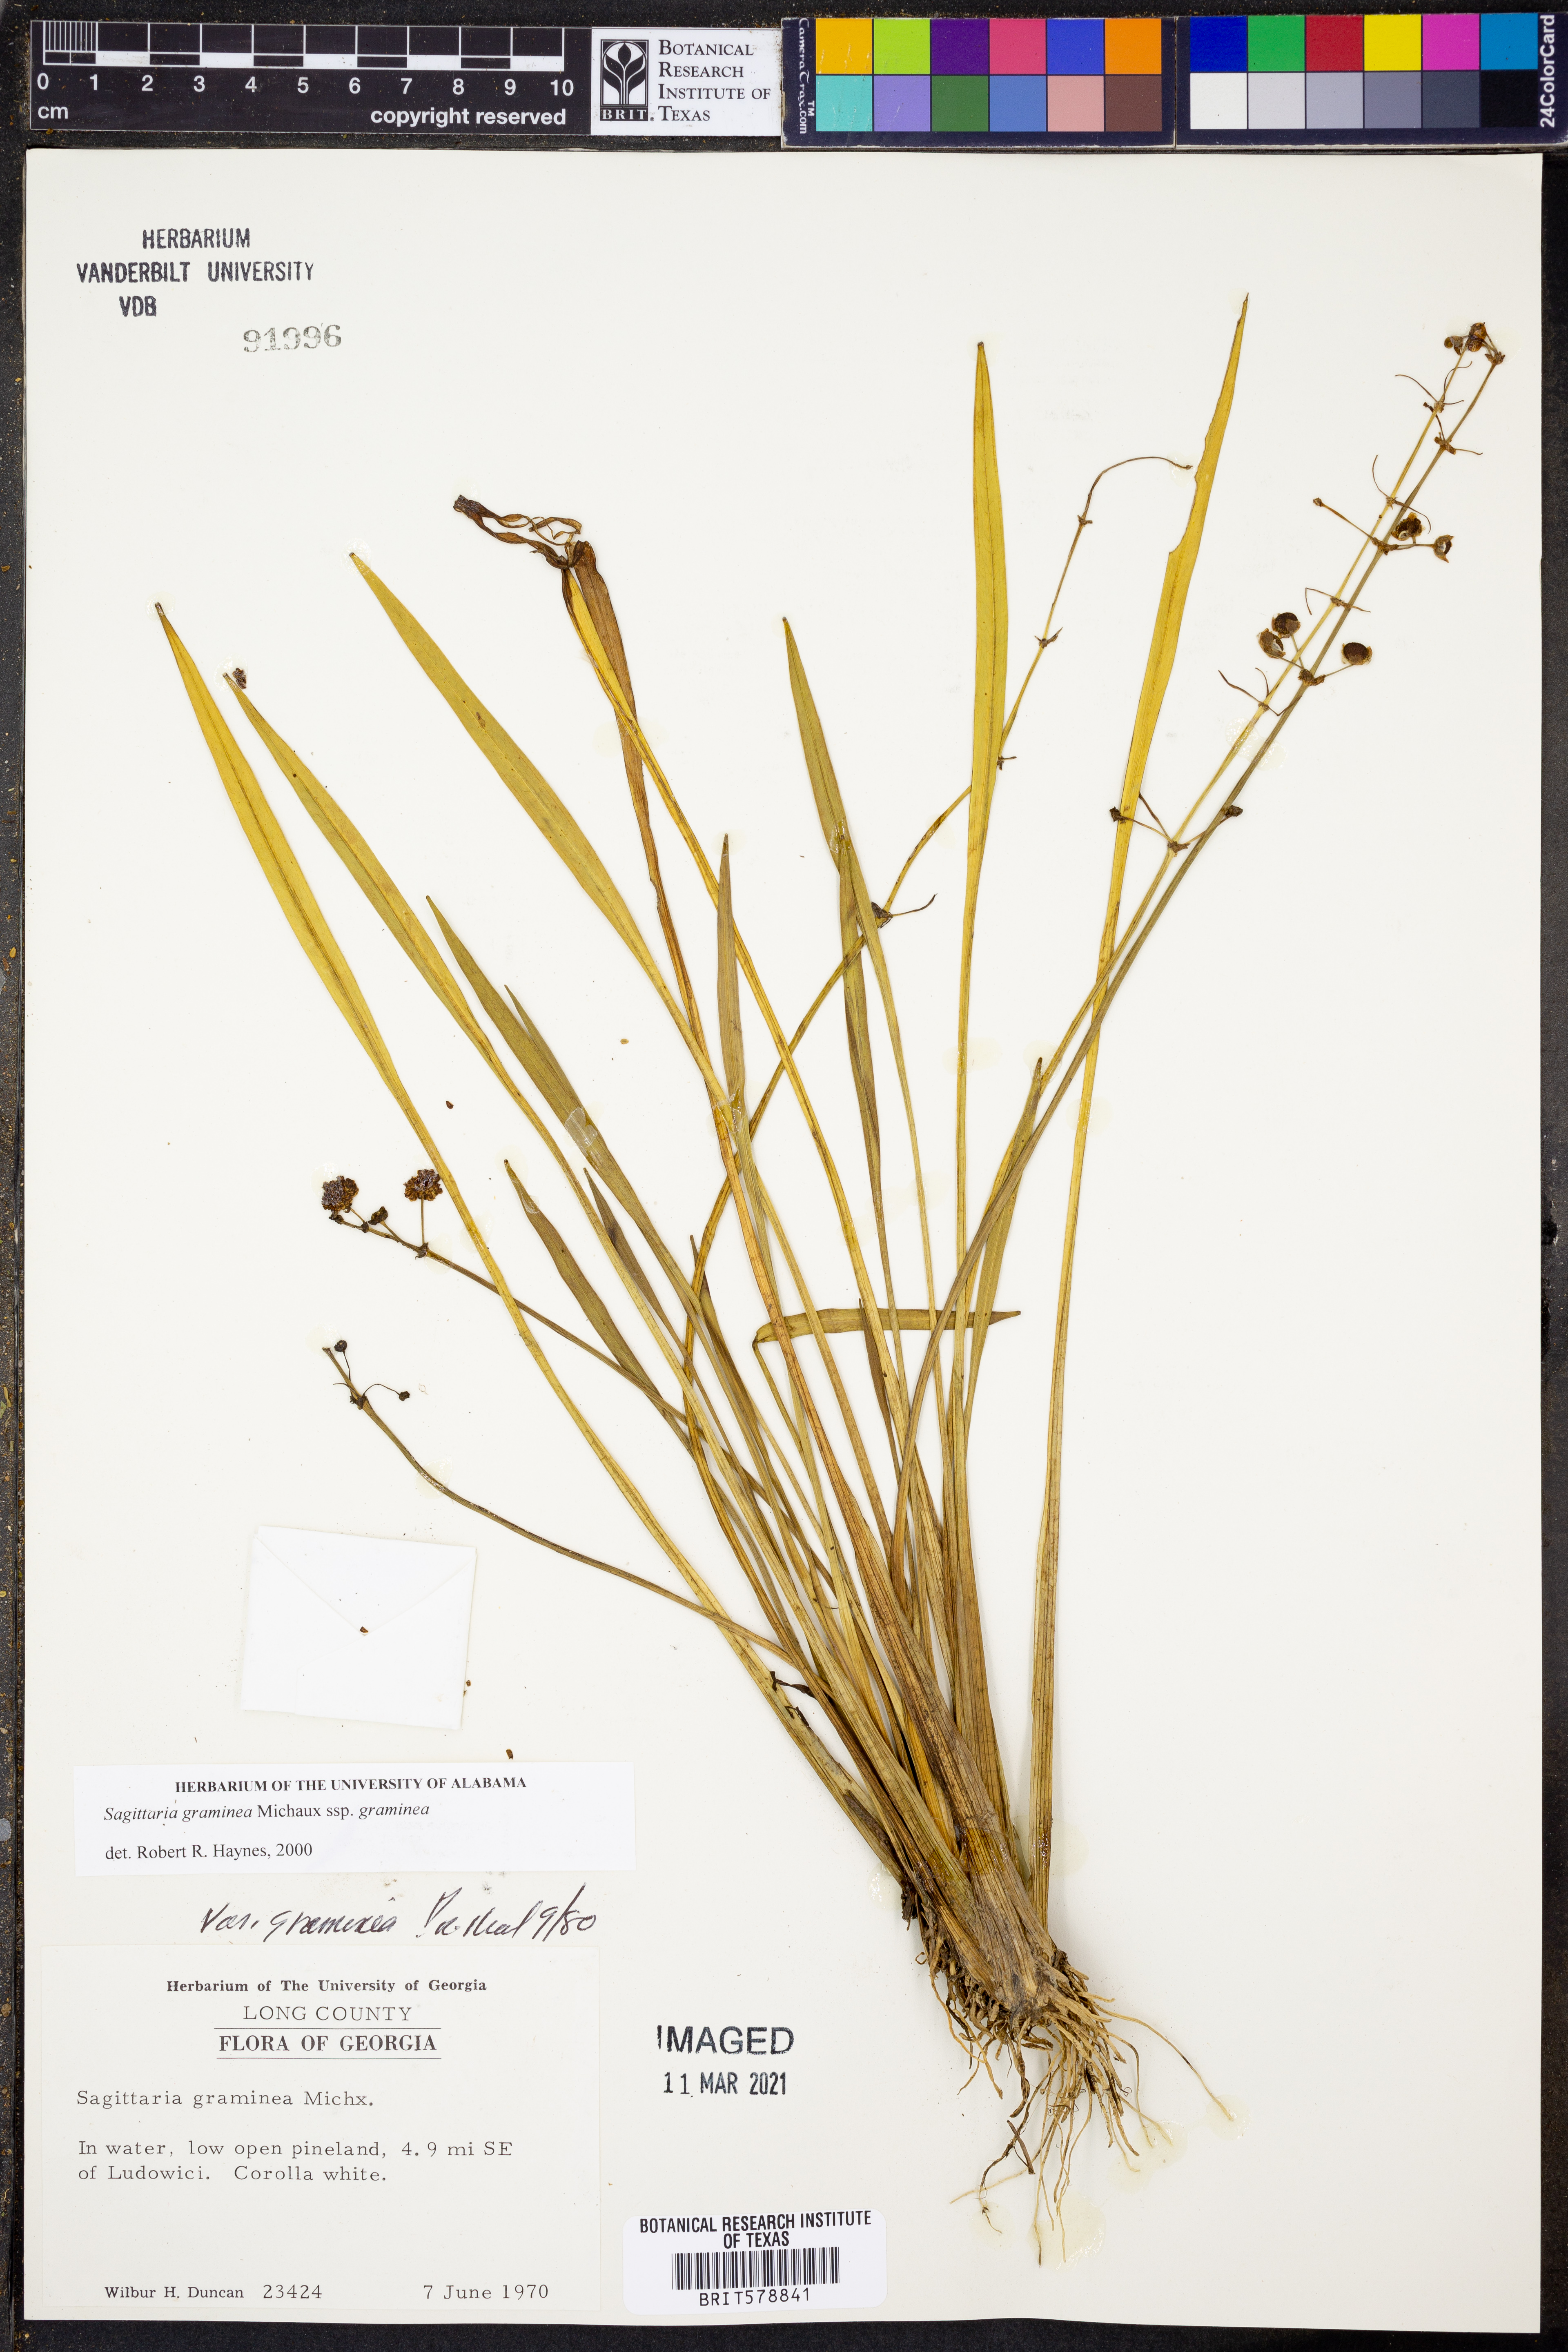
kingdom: Plantae
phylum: Tracheophyta
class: Liliopsida
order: Alismatales
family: Alismataceae
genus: Sagittaria
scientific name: Sagittaria graminea
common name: Grass-leaved arrowhead
